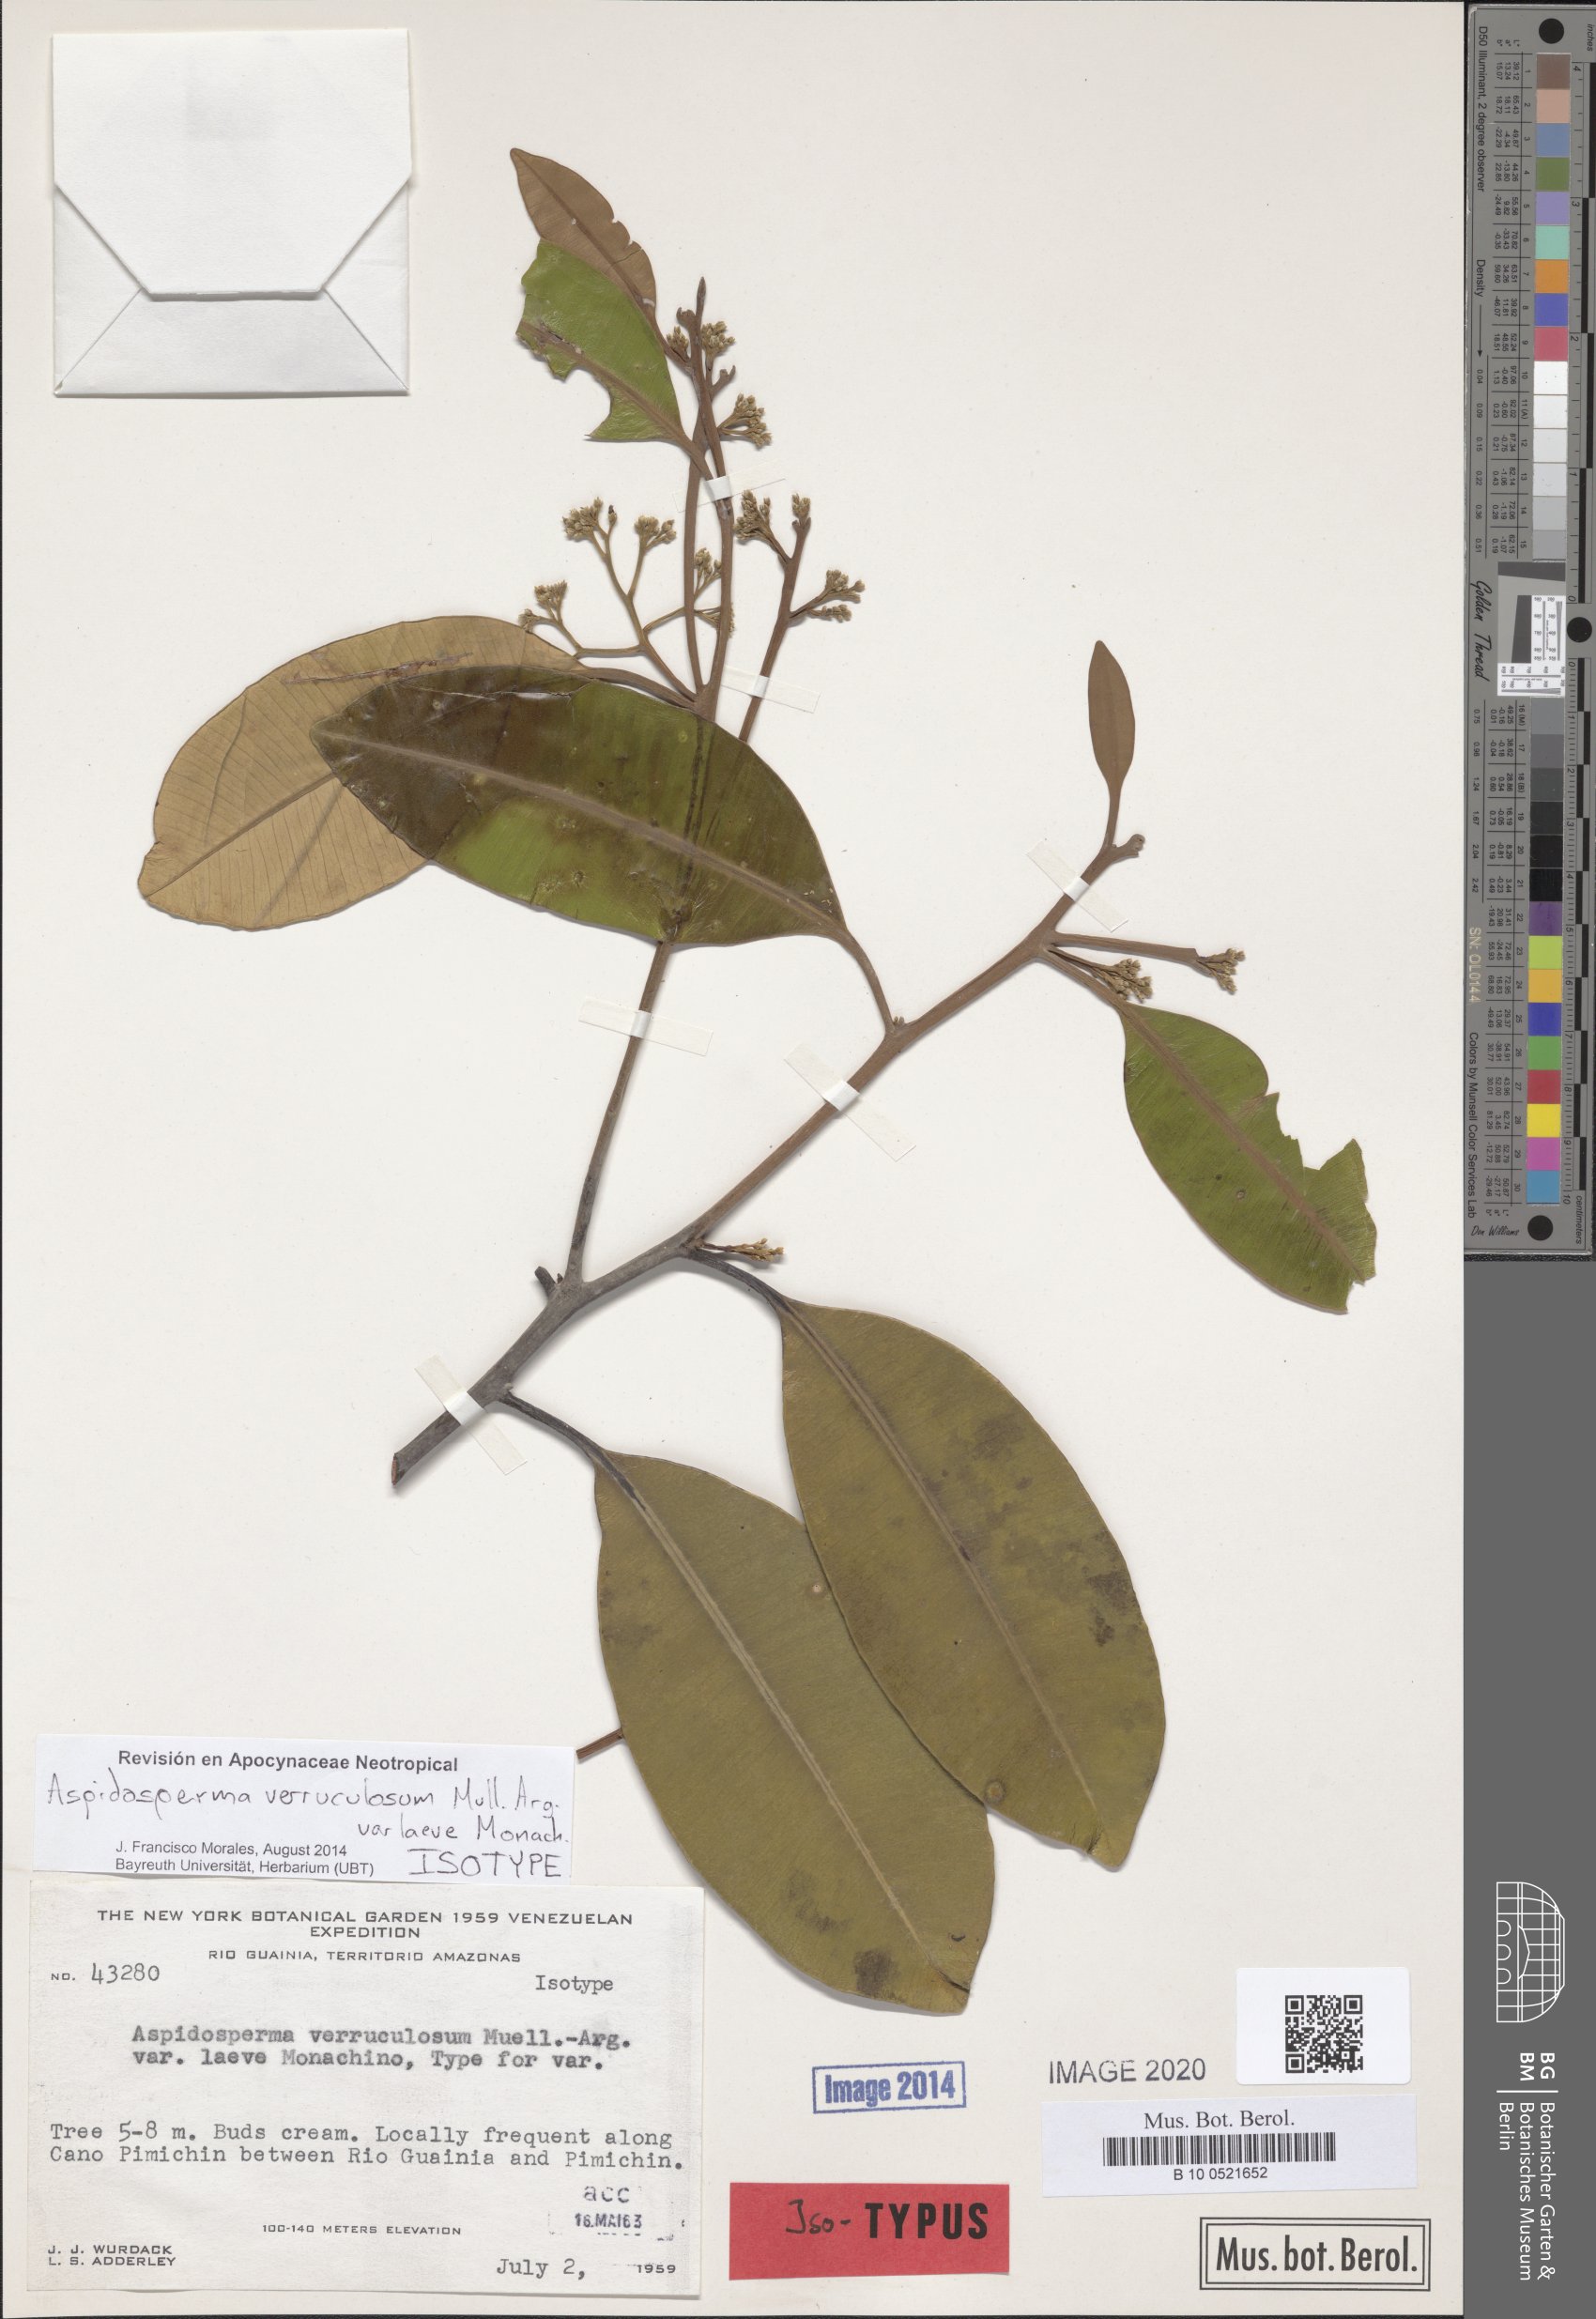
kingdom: Plantae
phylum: Tracheophyta
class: Magnoliopsida
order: Gentianales
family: Apocynaceae
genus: Aspidosperma
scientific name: Aspidosperma spruceanum
